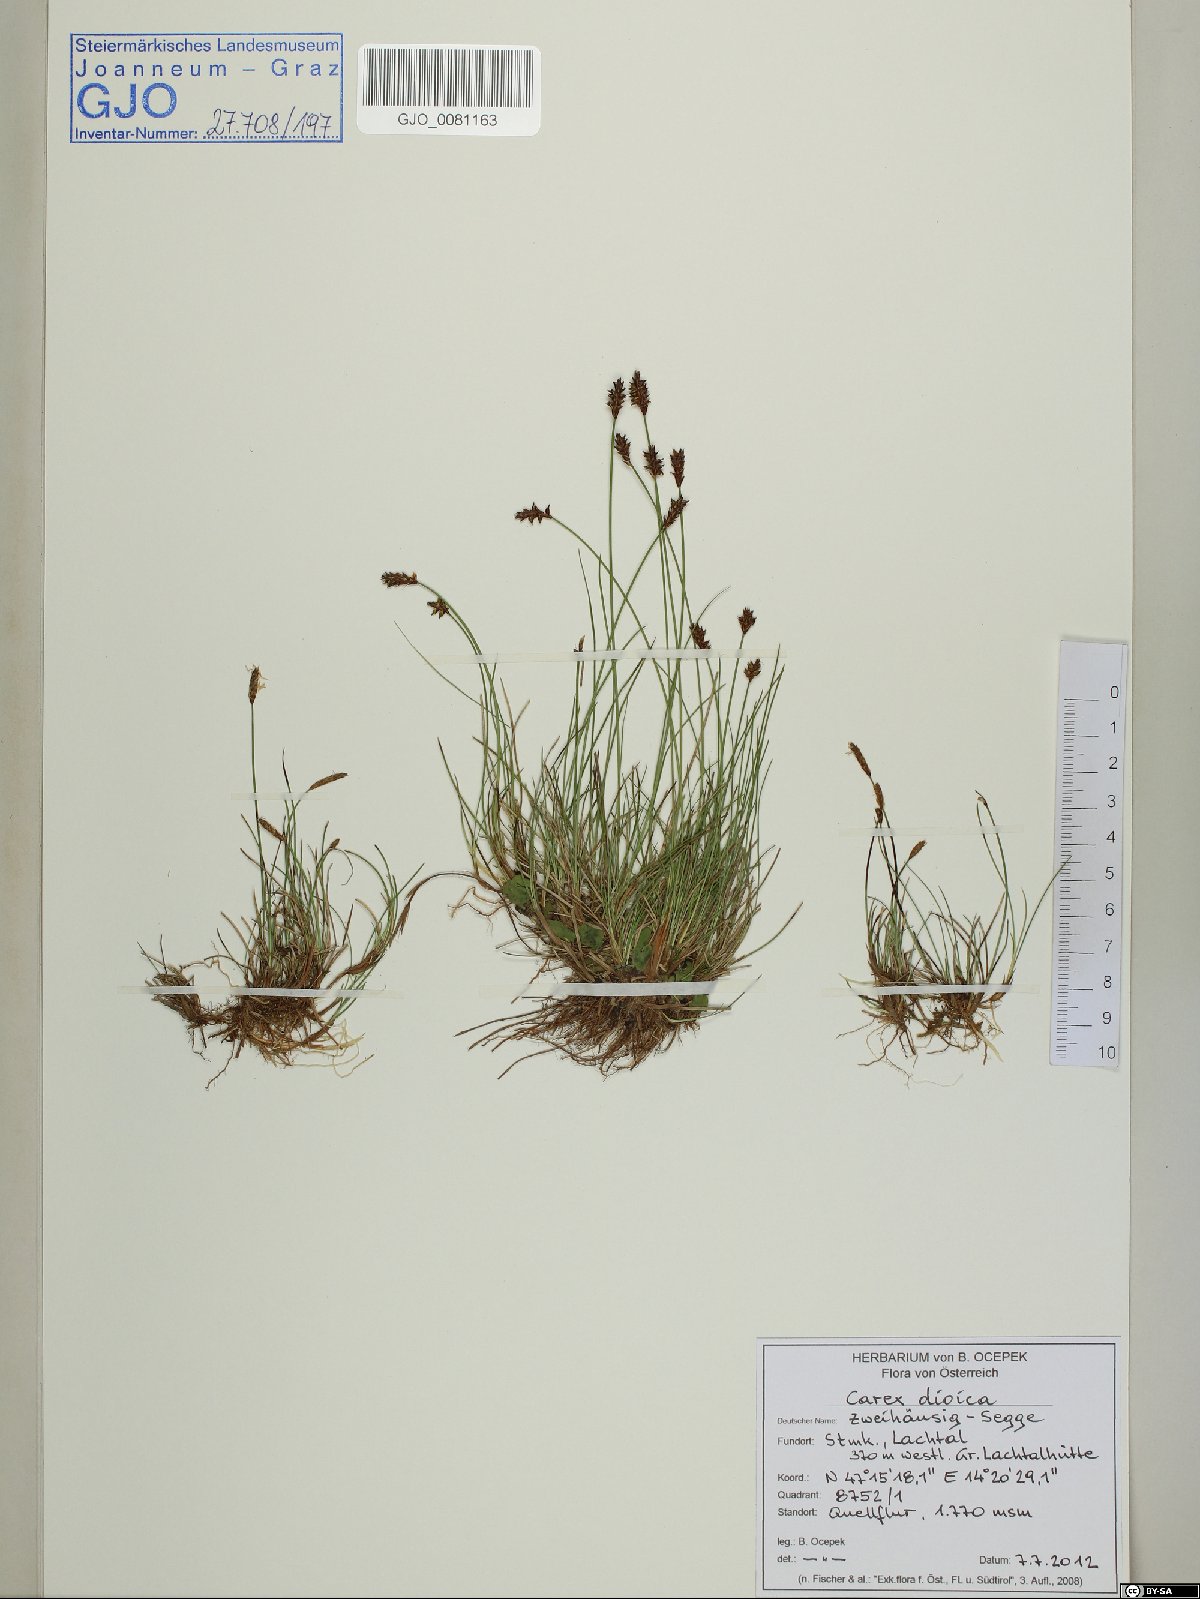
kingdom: Plantae
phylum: Tracheophyta
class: Liliopsida
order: Poales
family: Cyperaceae
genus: Carex
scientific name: Carex dioica
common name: Dioecious sedge
